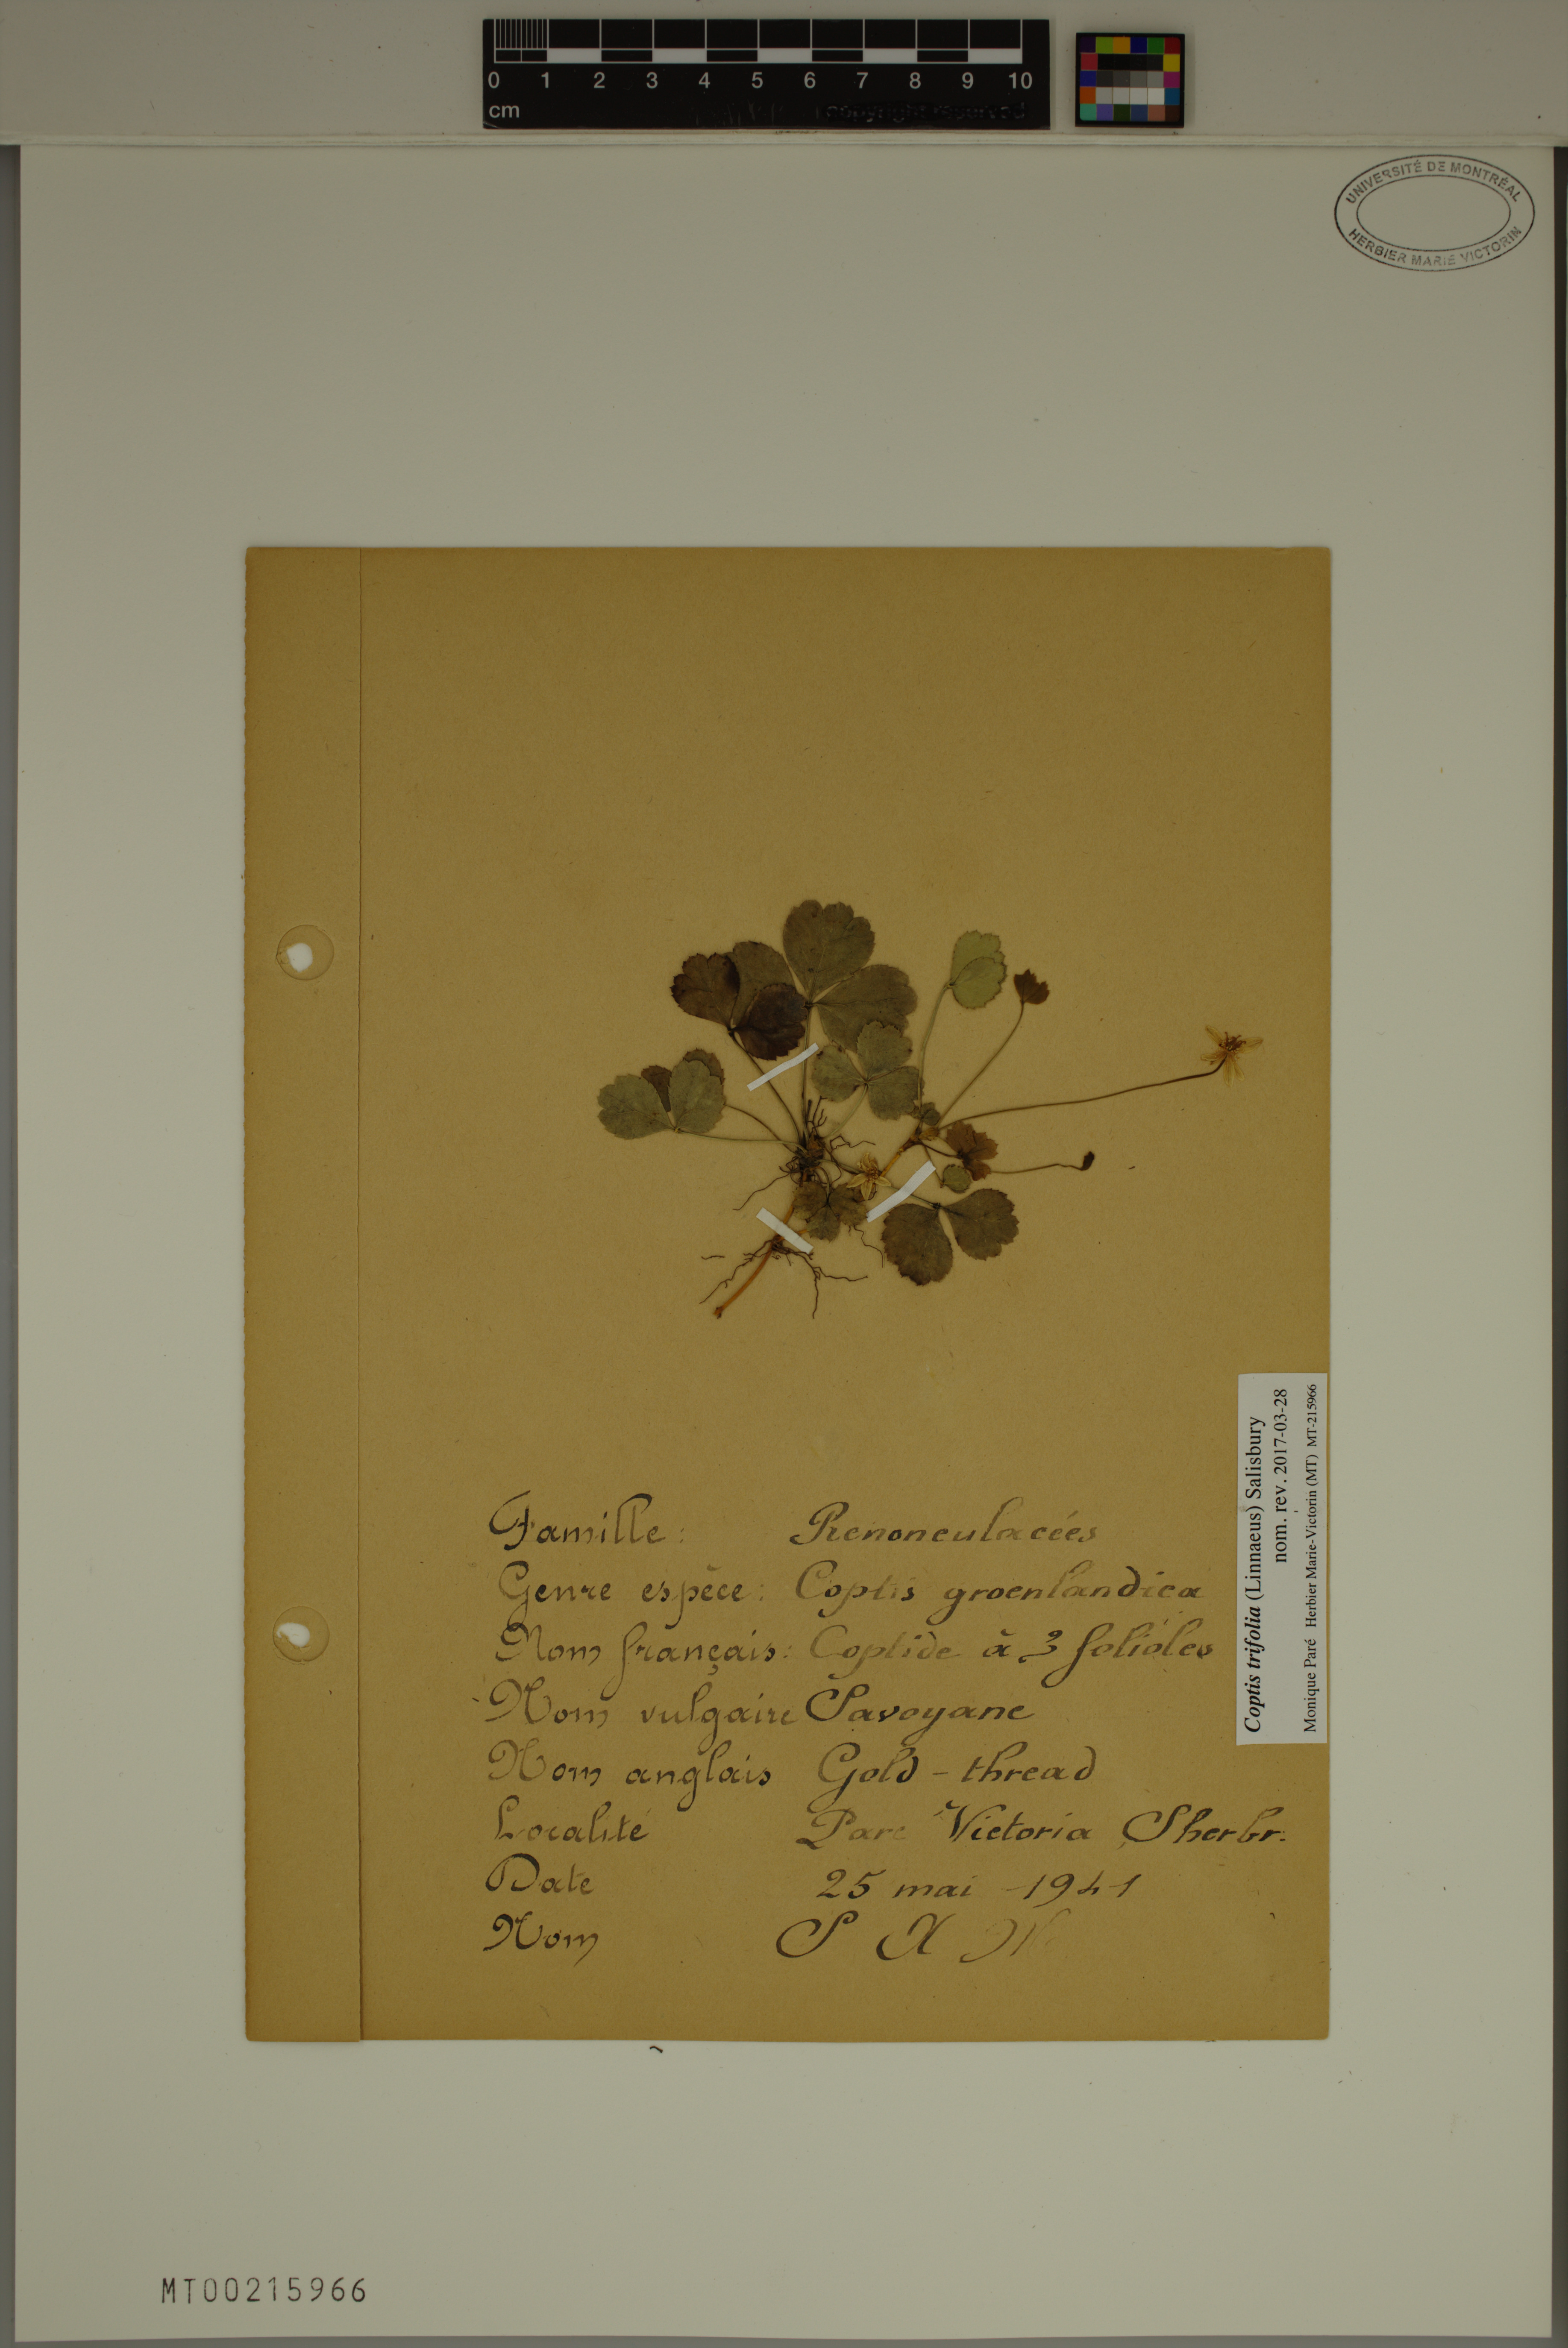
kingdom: Plantae
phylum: Tracheophyta
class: Magnoliopsida
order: Ranunculales
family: Ranunculaceae
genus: Coptis
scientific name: Coptis trifolia
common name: Canker-root
